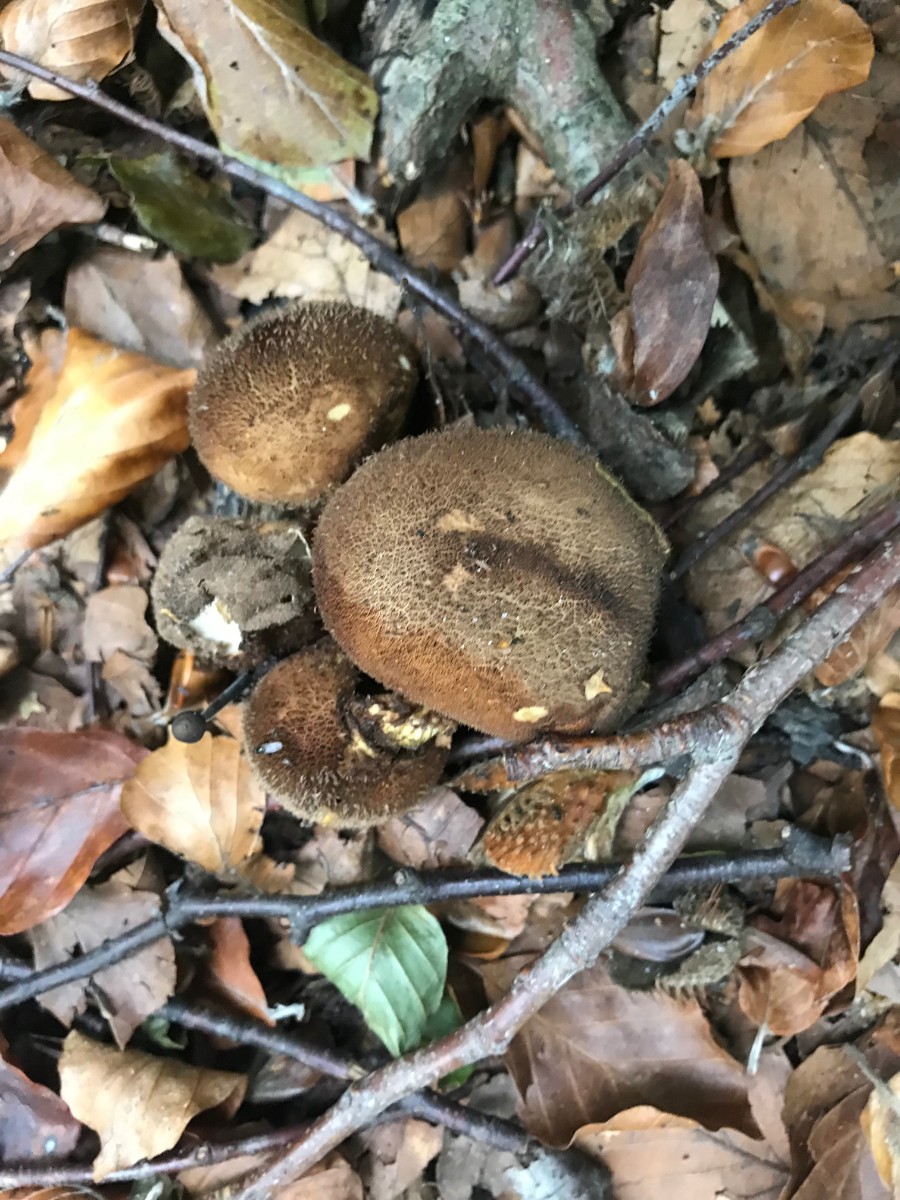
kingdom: Fungi
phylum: Basidiomycota
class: Agaricomycetes
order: Agaricales
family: Lycoperdaceae
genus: Lycoperdon
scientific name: Lycoperdon nigrescens
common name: sortagtig støvbold
